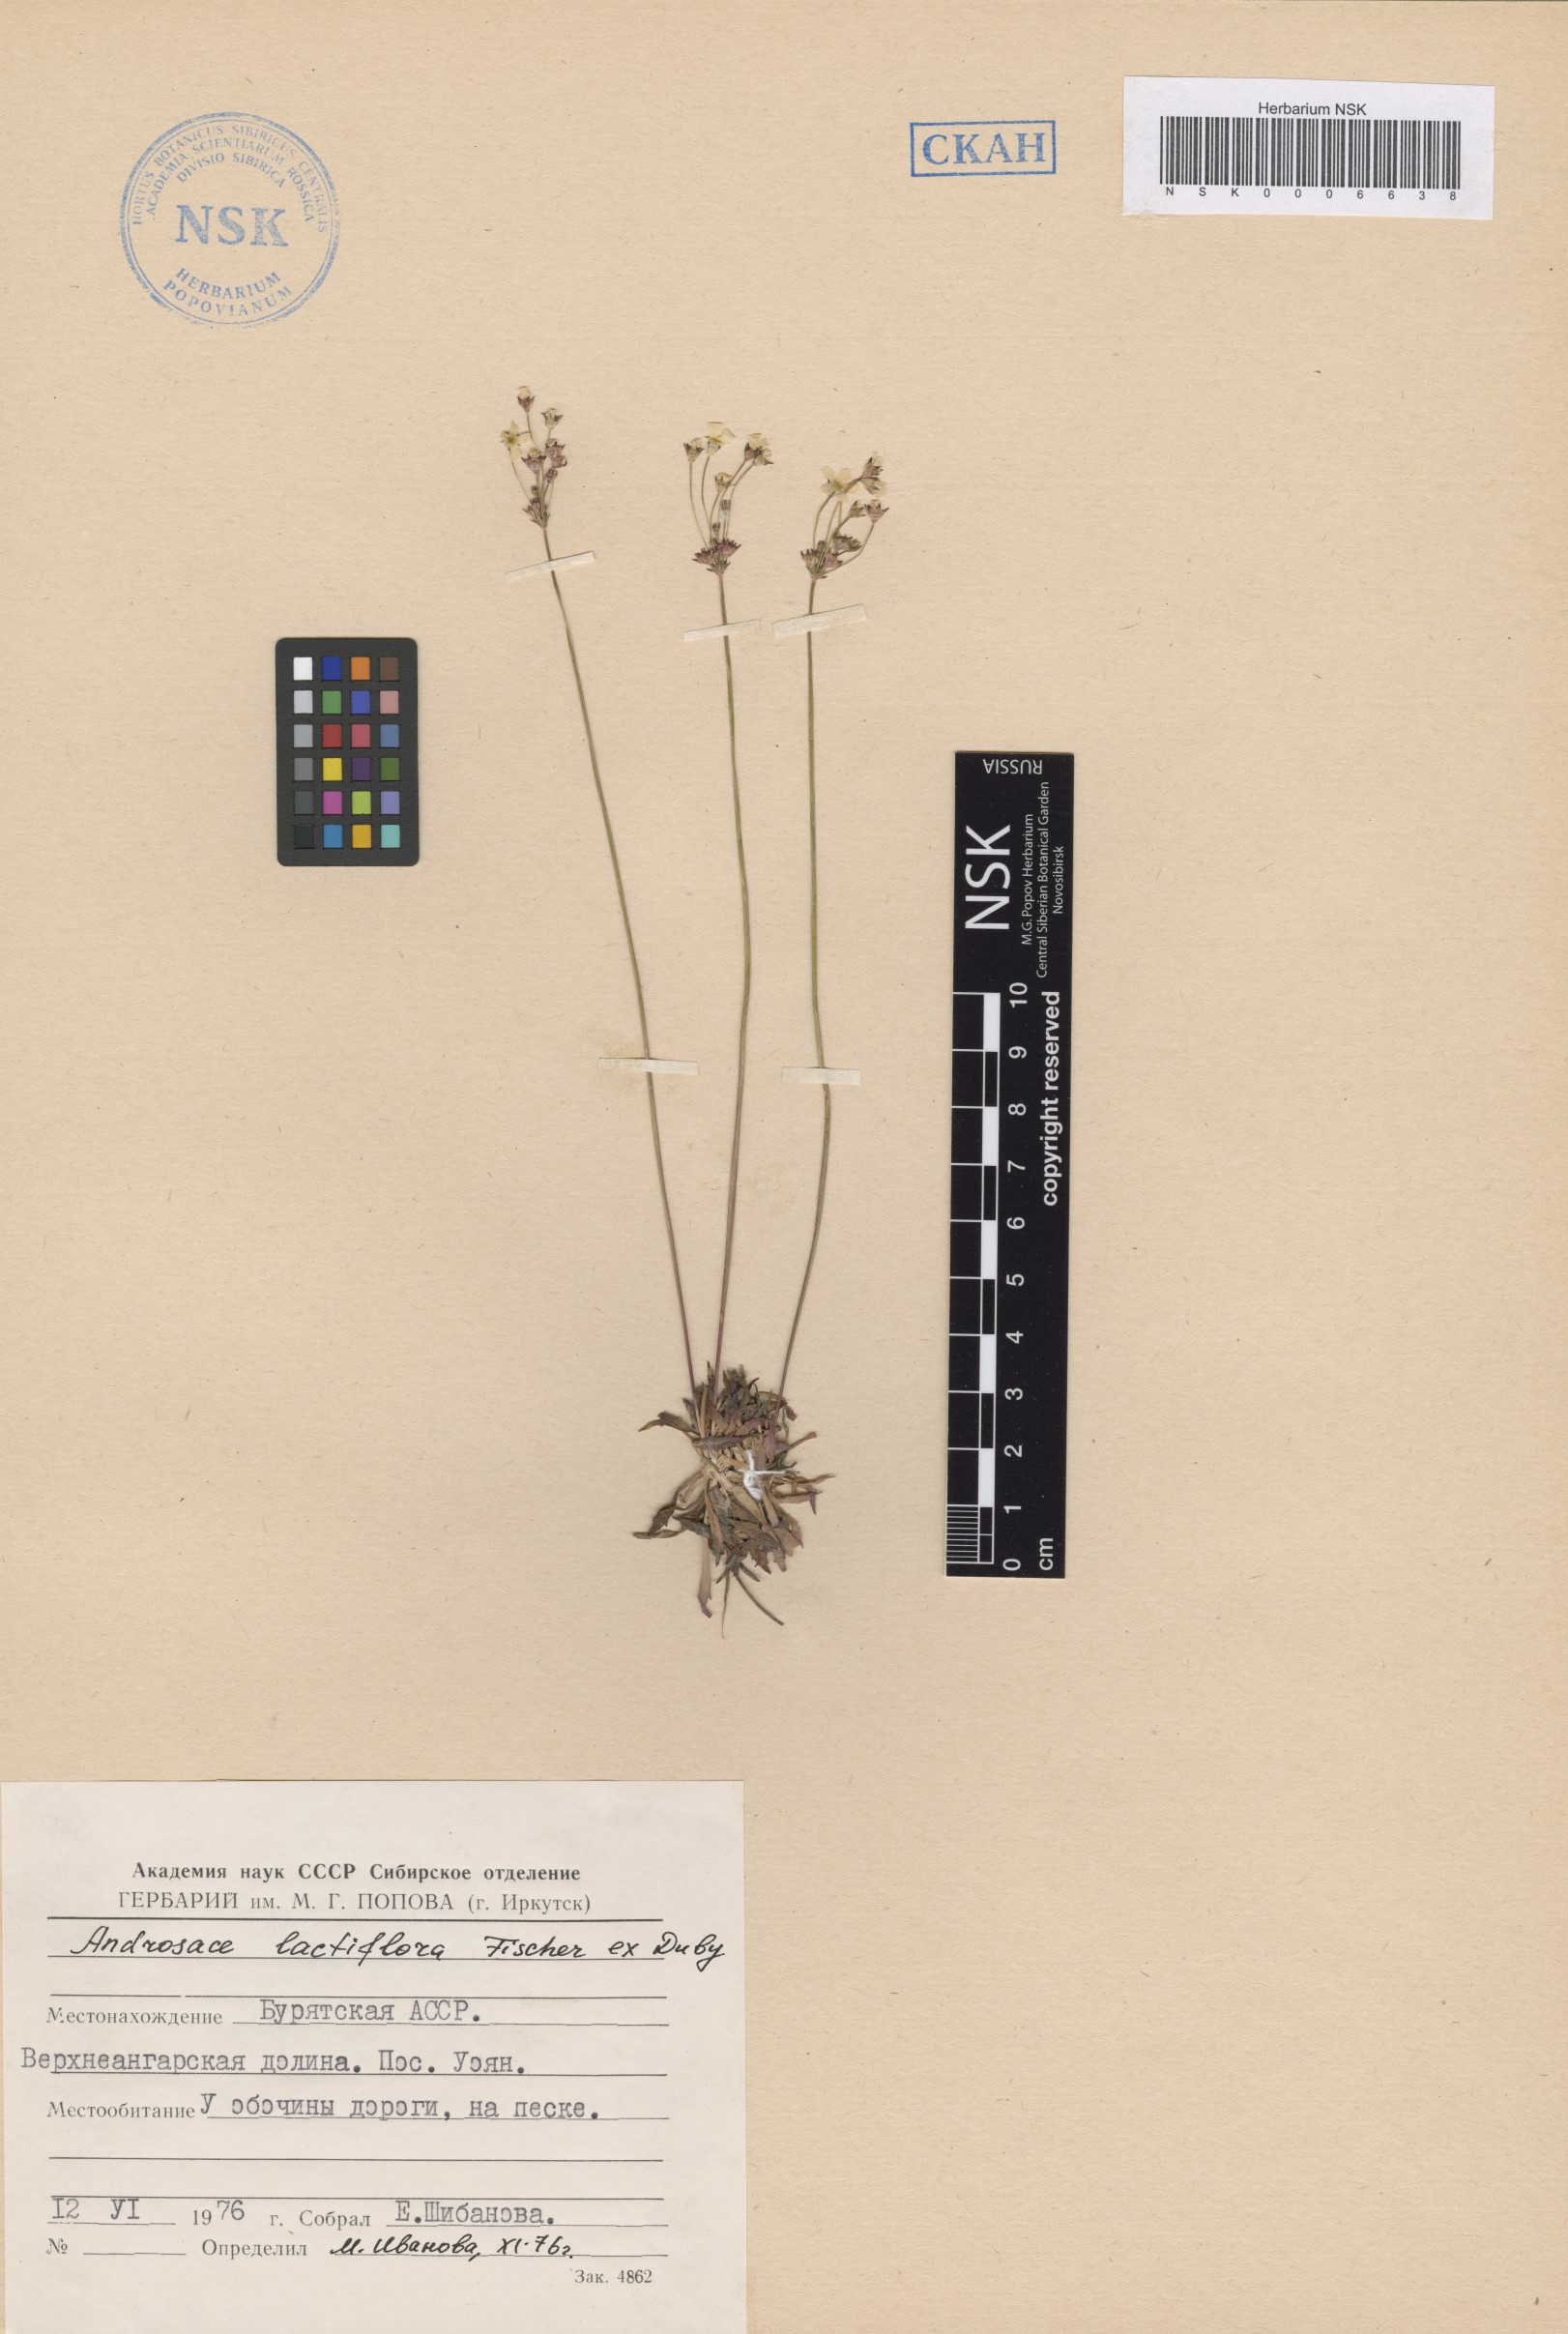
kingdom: Plantae
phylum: Tracheophyta
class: Magnoliopsida
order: Ericales
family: Primulaceae
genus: Androsace
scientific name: Androsace lactiflora
